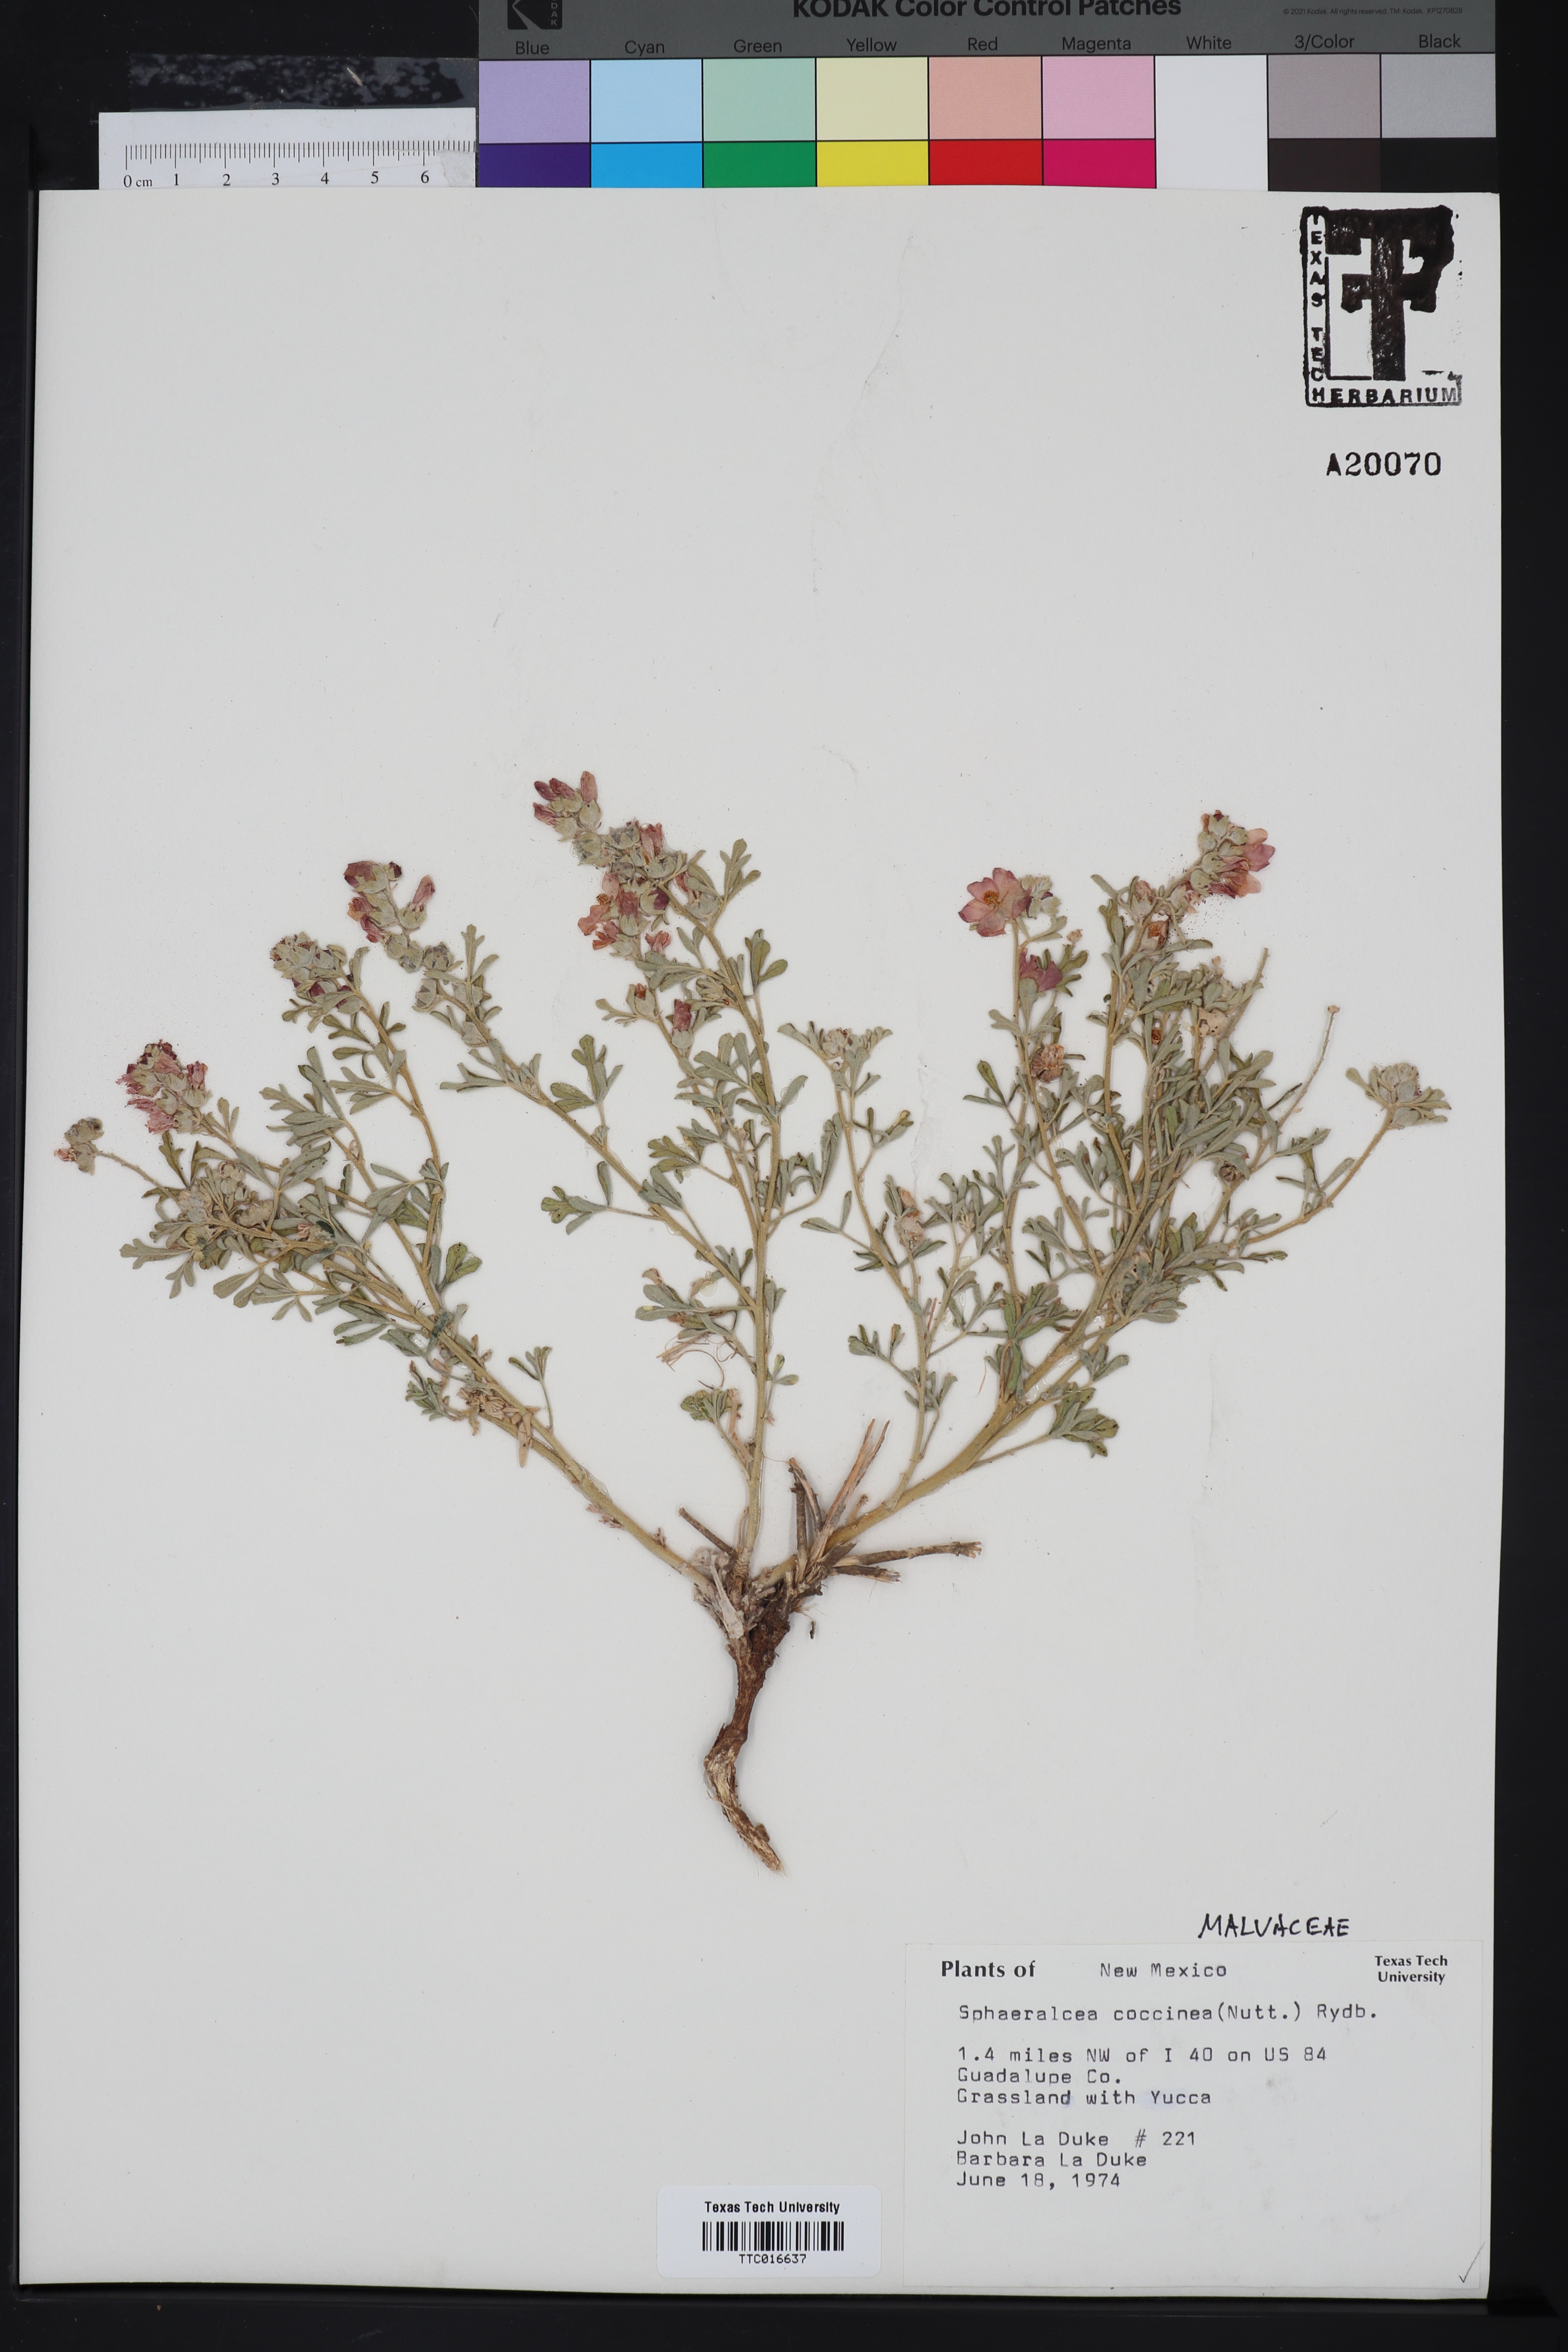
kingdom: Plantae
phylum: Tracheophyta
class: Magnoliopsida
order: Malvales
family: Malvaceae
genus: Sphaeralcea
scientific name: Sphaeralcea coccinea
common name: Moss-rose
